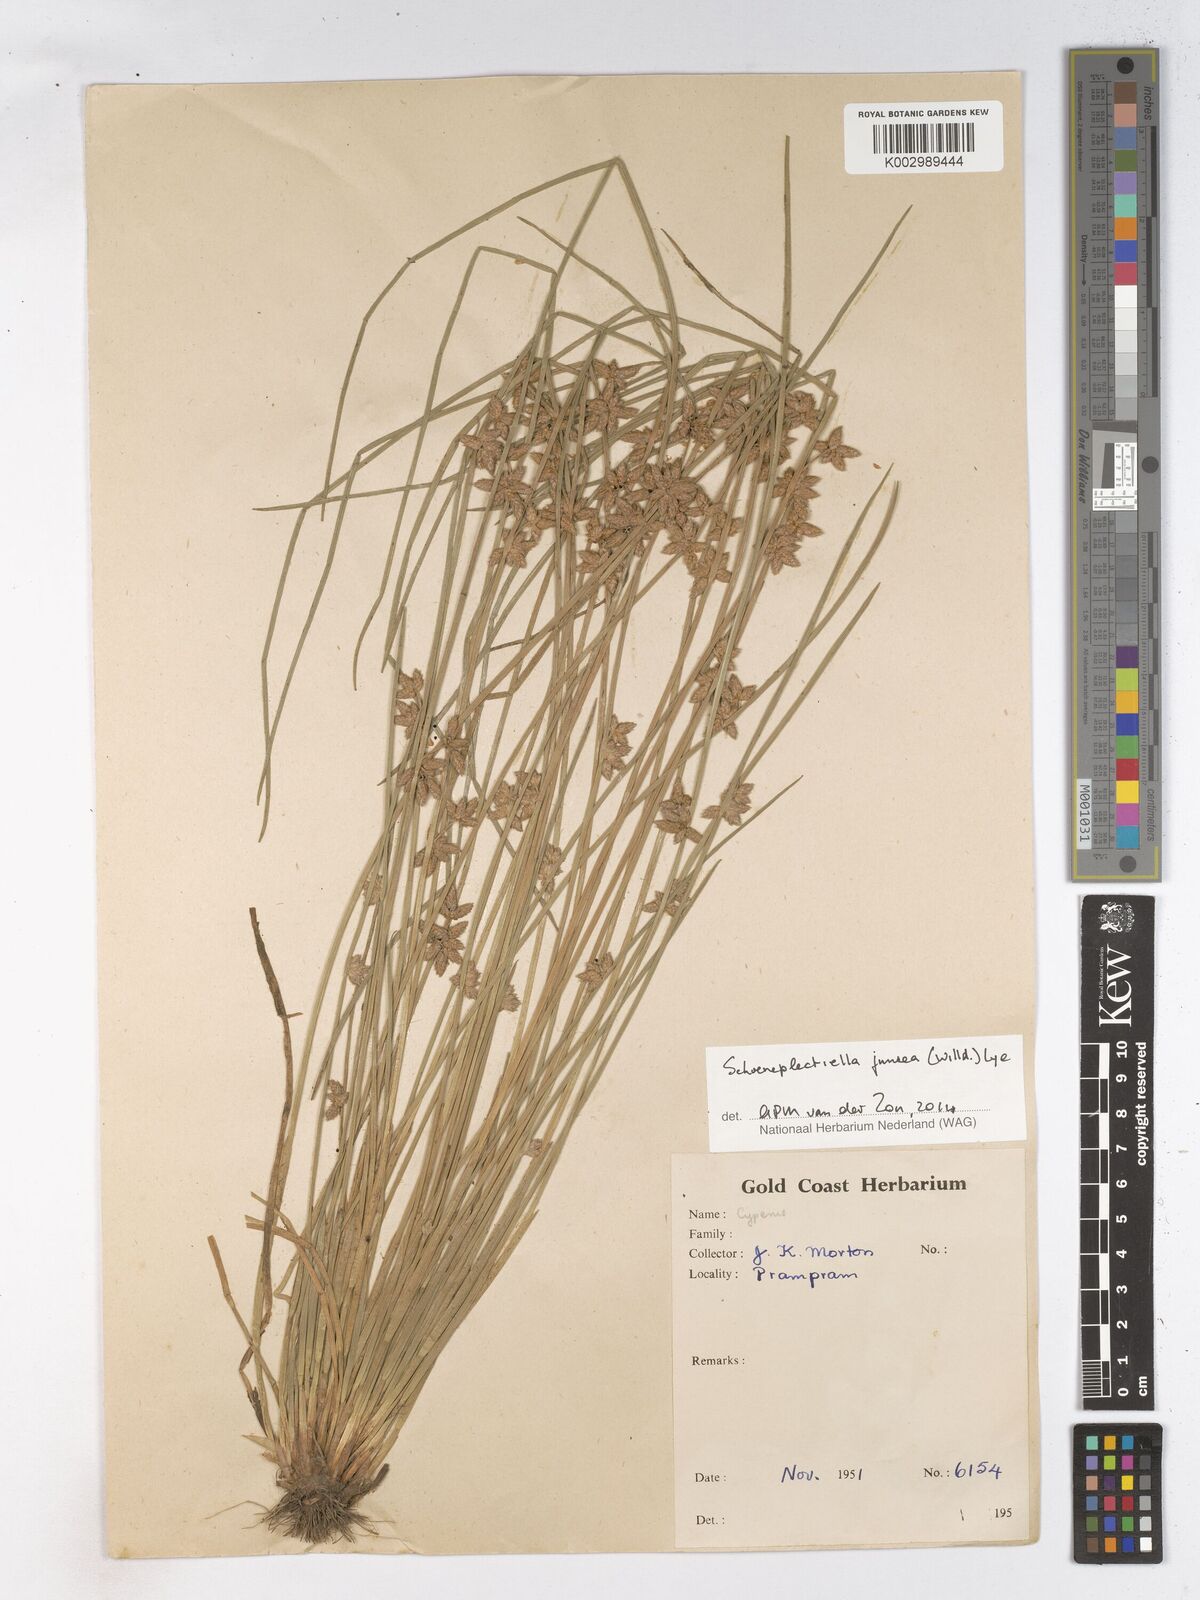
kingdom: Plantae
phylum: Tracheophyta
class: Liliopsida
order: Poales
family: Cyperaceae
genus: Schoenoplectiella
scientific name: Schoenoplectiella juncea
